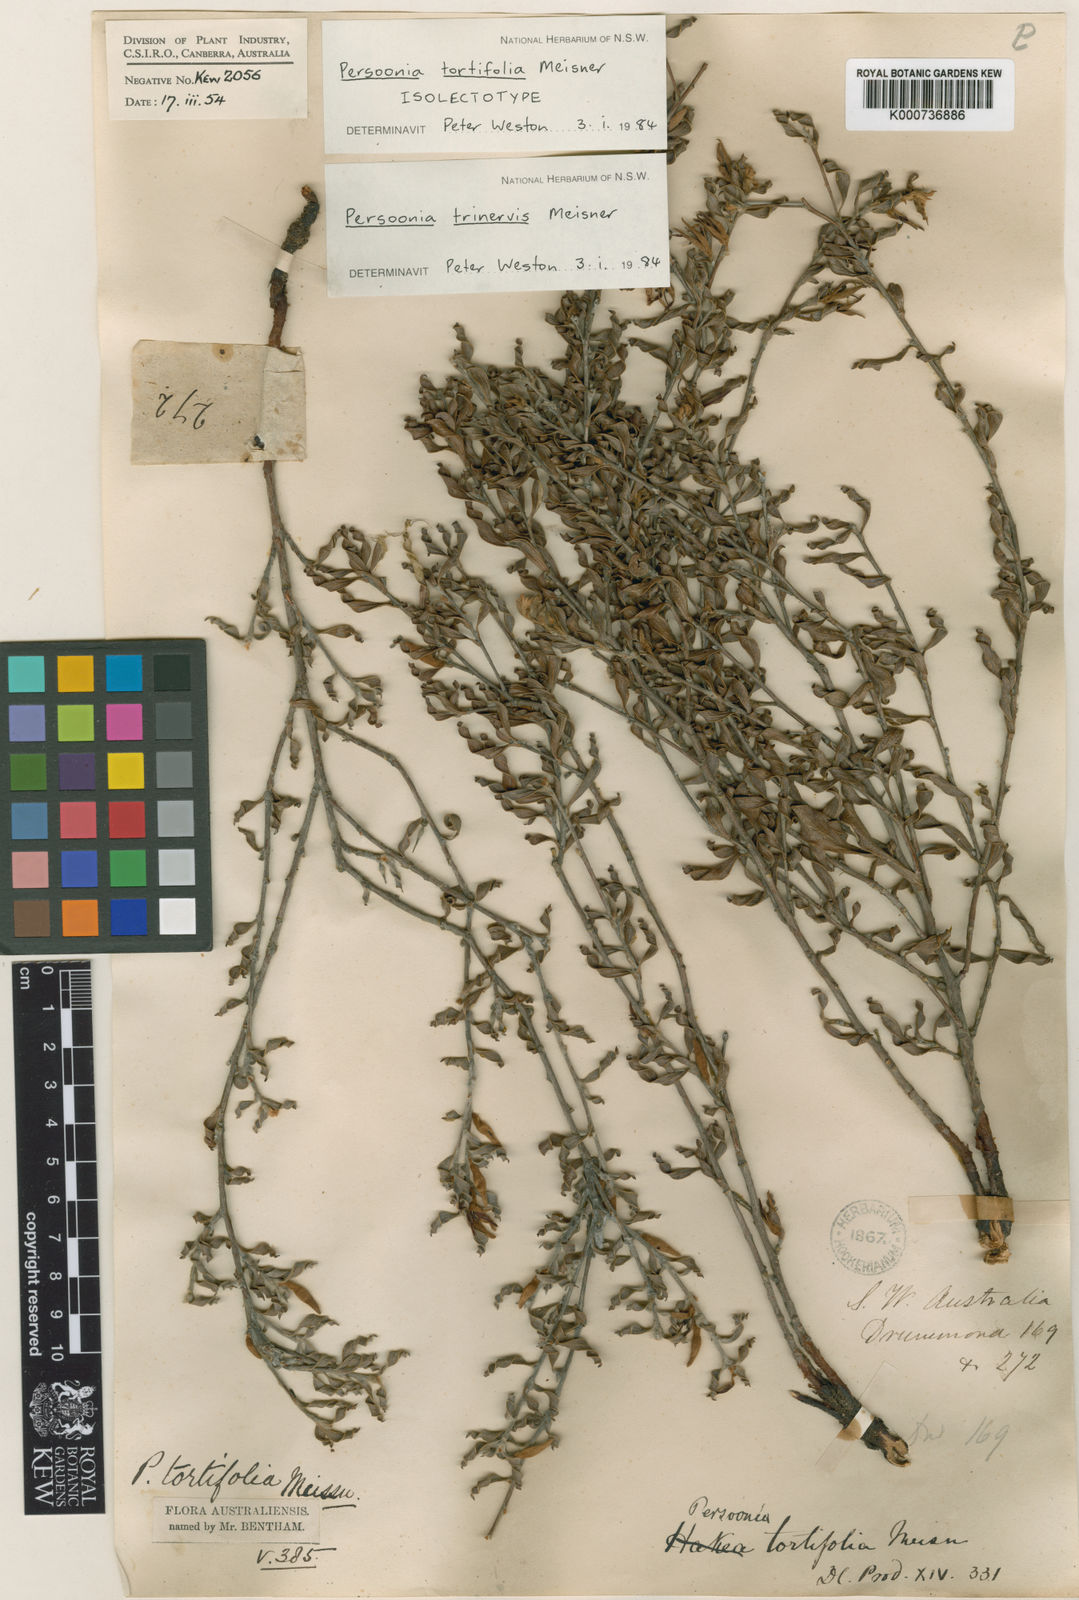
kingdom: Plantae
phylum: Tracheophyta
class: Magnoliopsida
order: Proteales
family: Proteaceae
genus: Persoonia
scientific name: Persoonia trinervis
